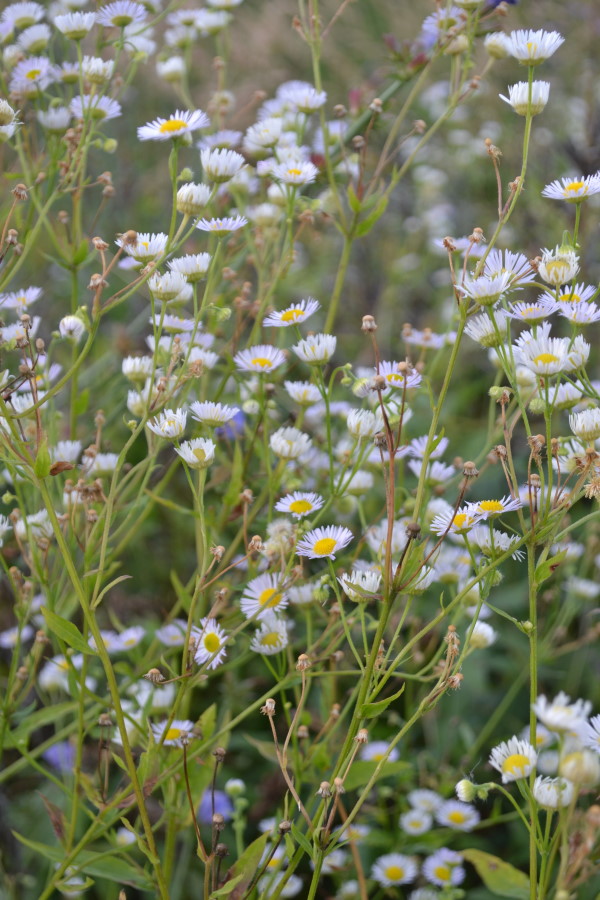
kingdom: Plantae
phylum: Tracheophyta
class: Magnoliopsida
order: Asterales
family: Asteraceae
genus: Erigeron
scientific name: Erigeron annuus
